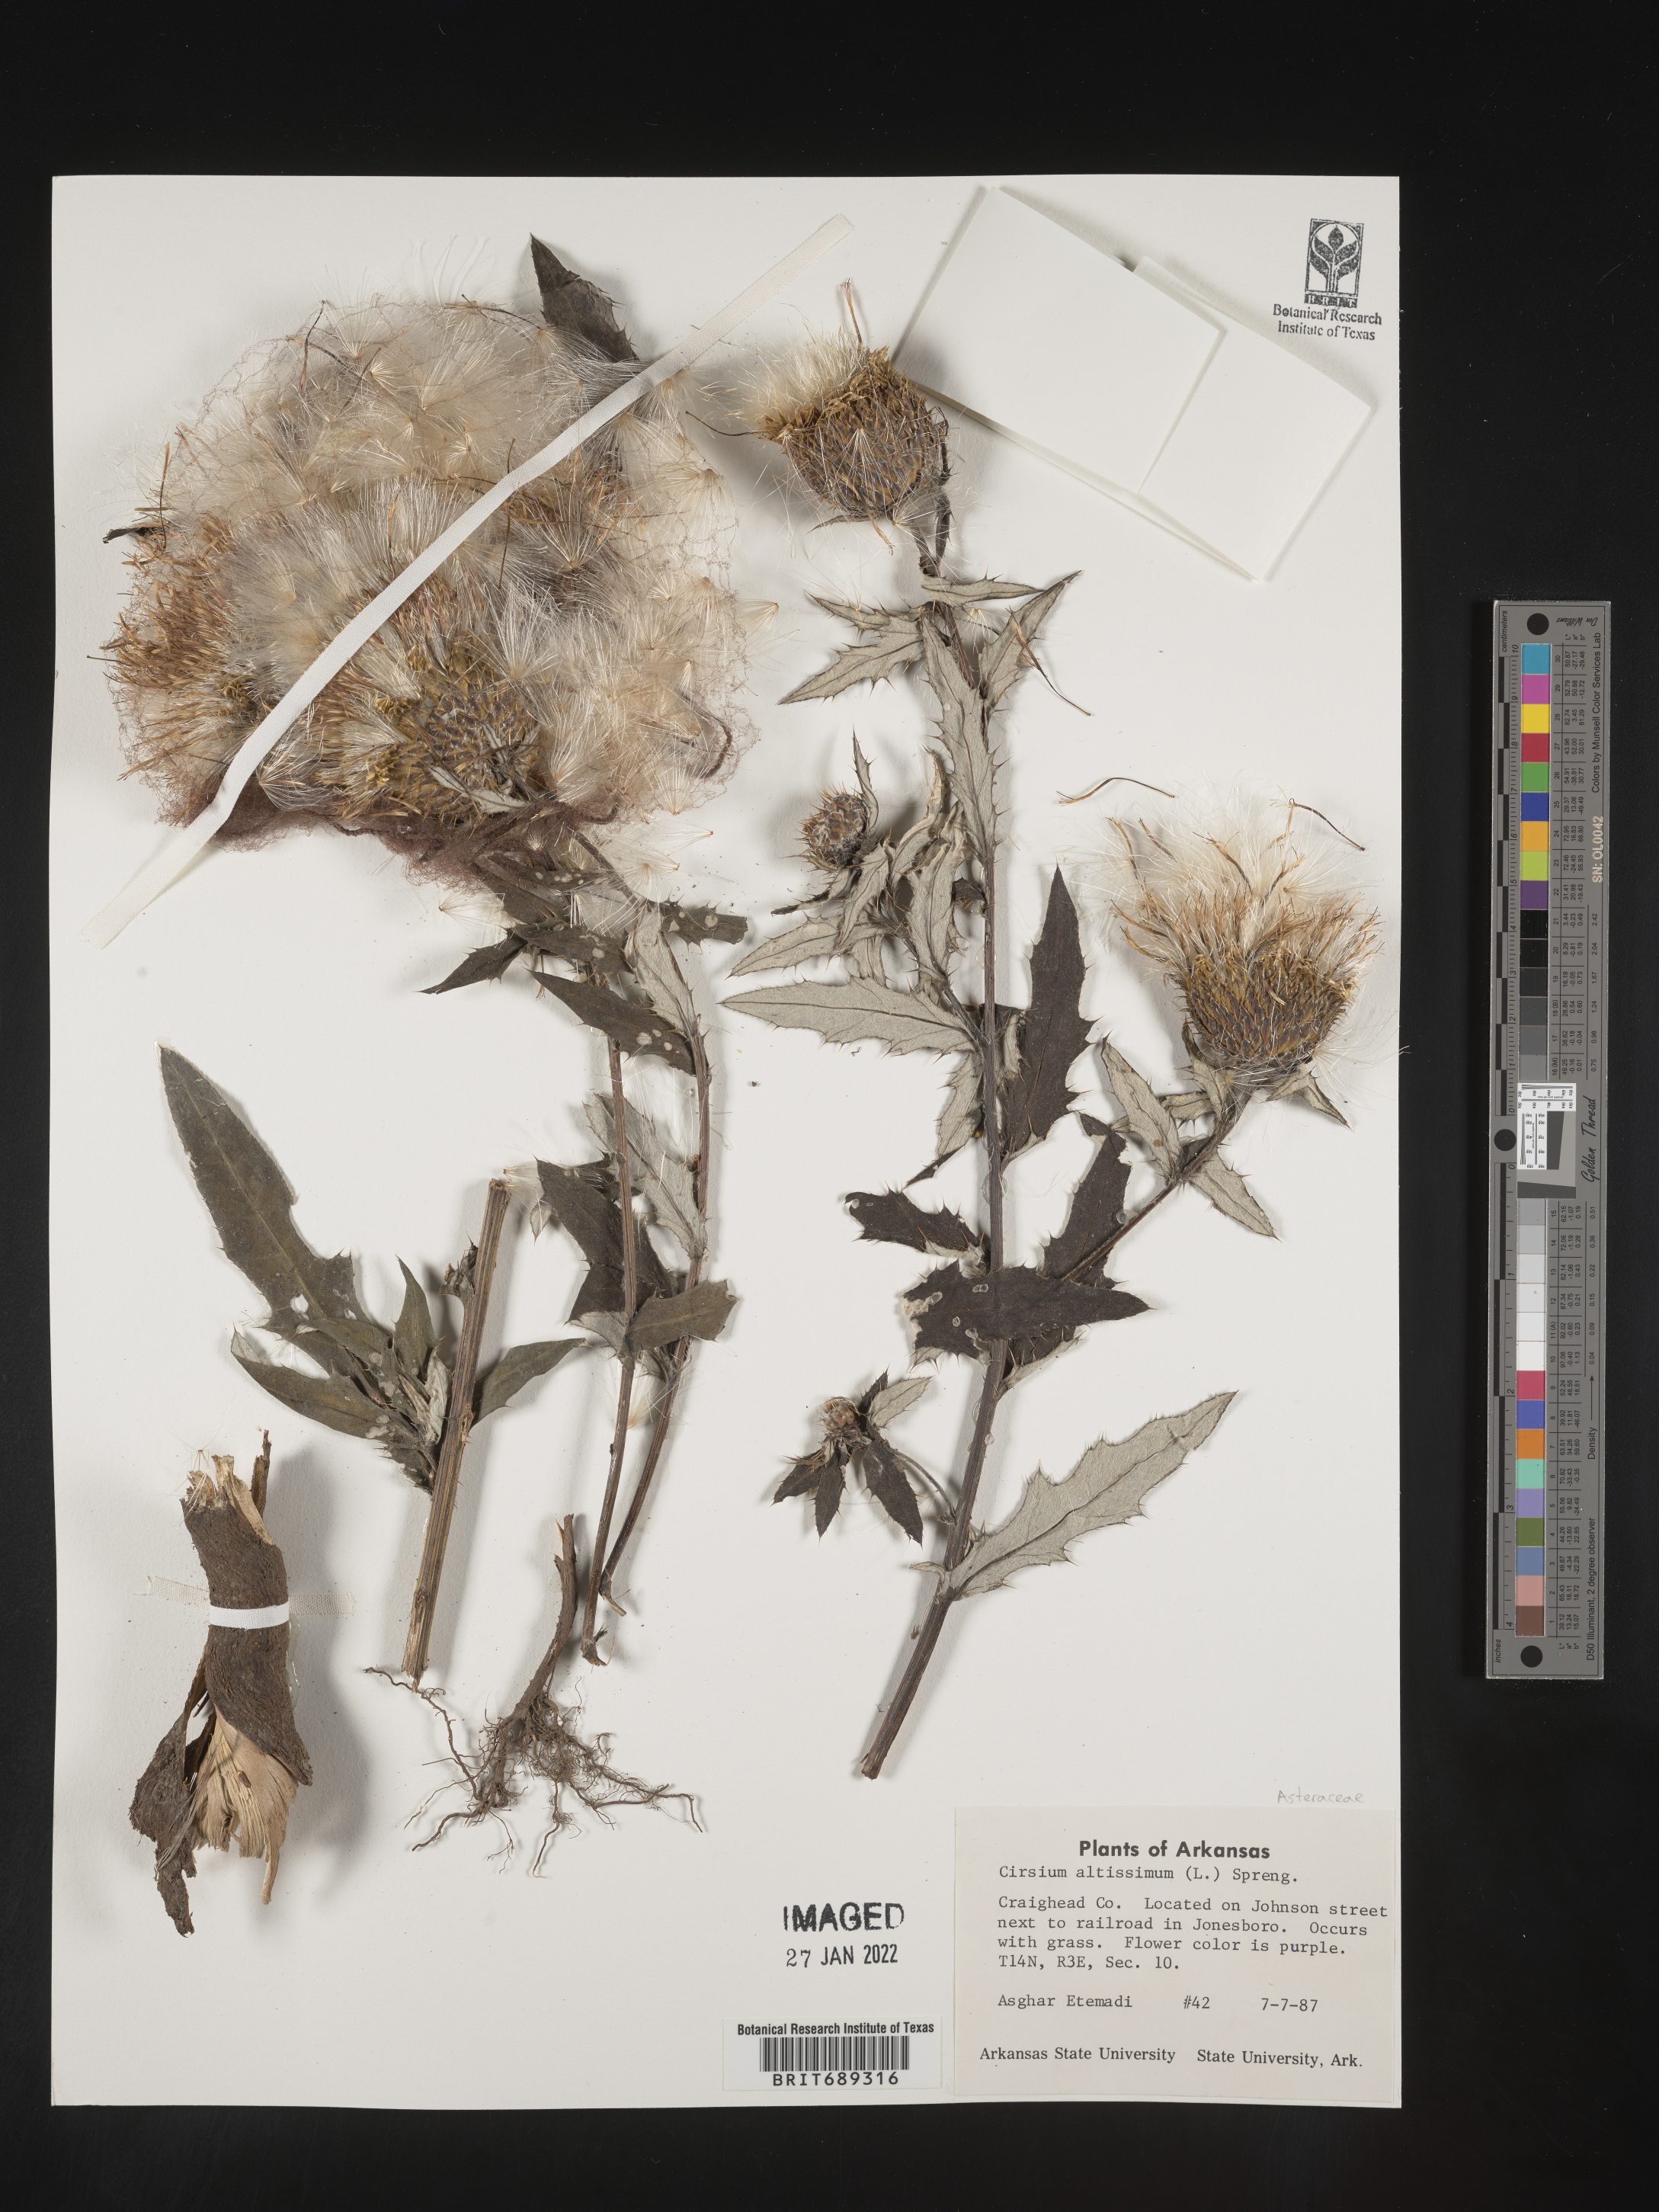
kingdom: Plantae
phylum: Tracheophyta
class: Magnoliopsida
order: Asterales
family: Asteraceae
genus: Cirsium
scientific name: Cirsium altissimum
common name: Roadside thistle
